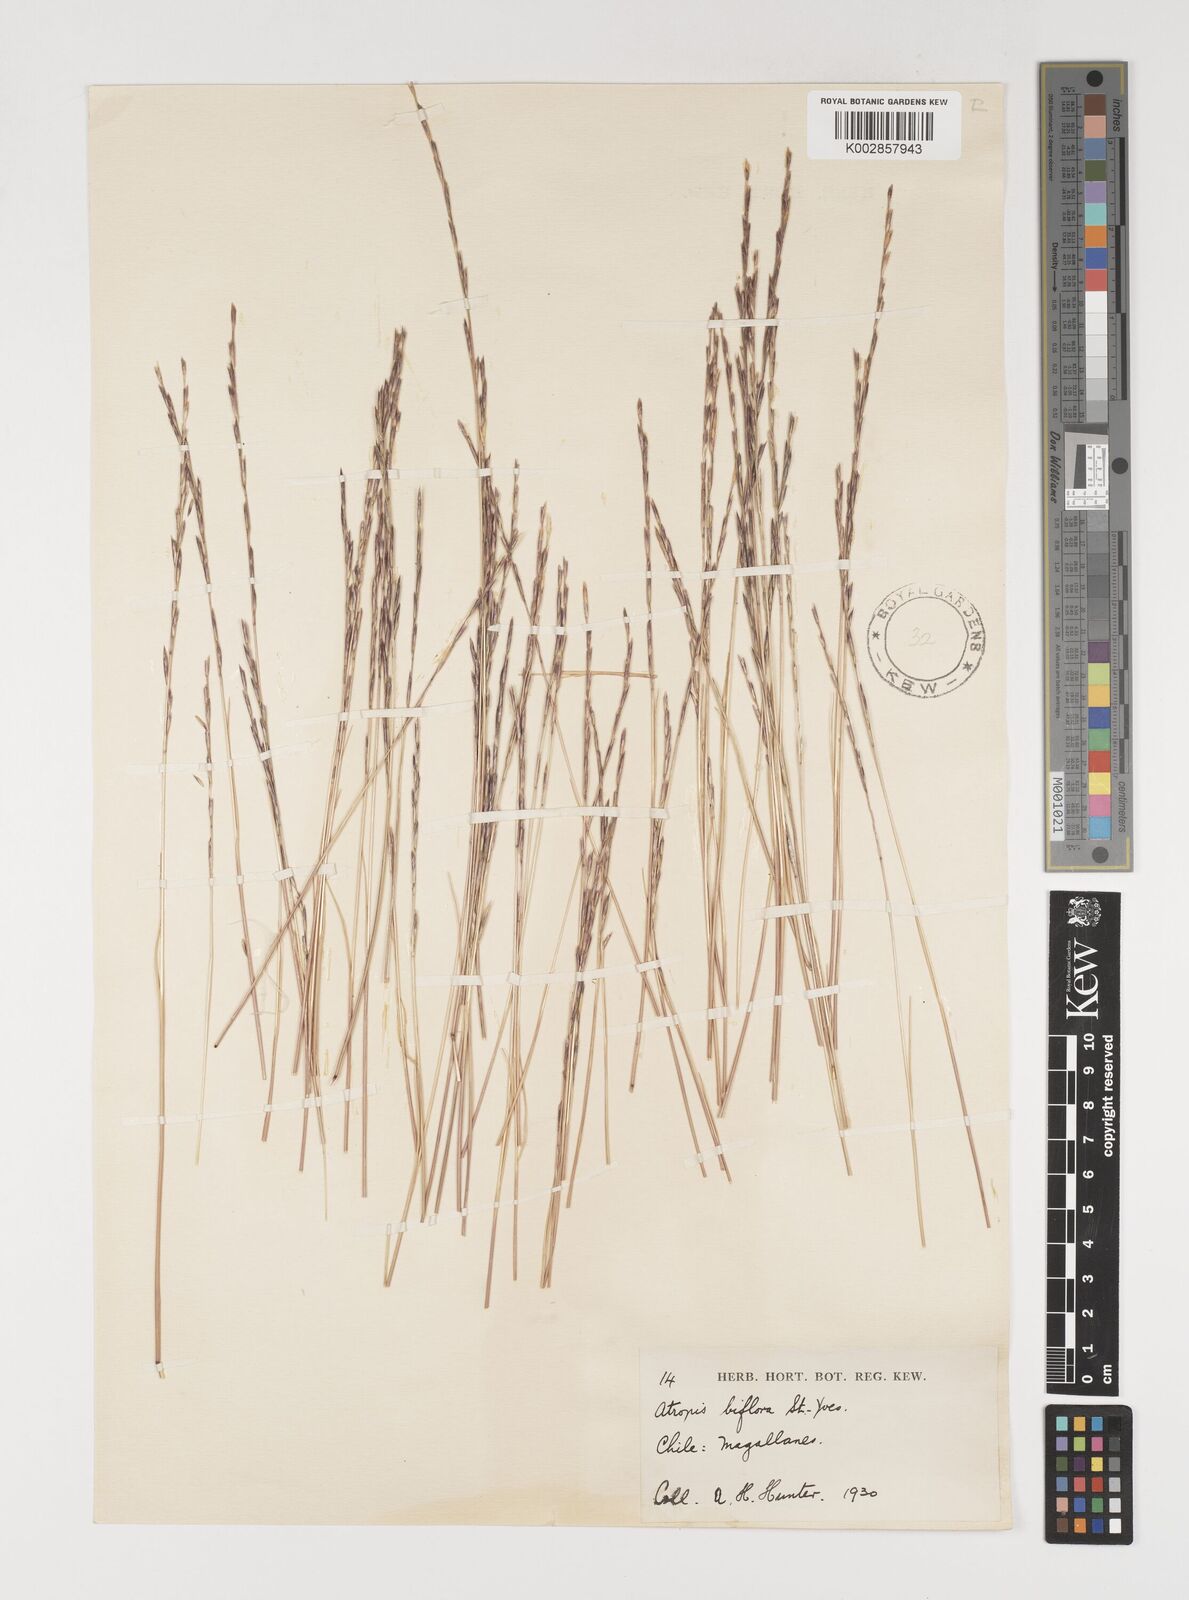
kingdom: Plantae
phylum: Tracheophyta
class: Liliopsida
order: Poales
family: Poaceae
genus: Puccinellia
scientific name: Puccinellia biflora
